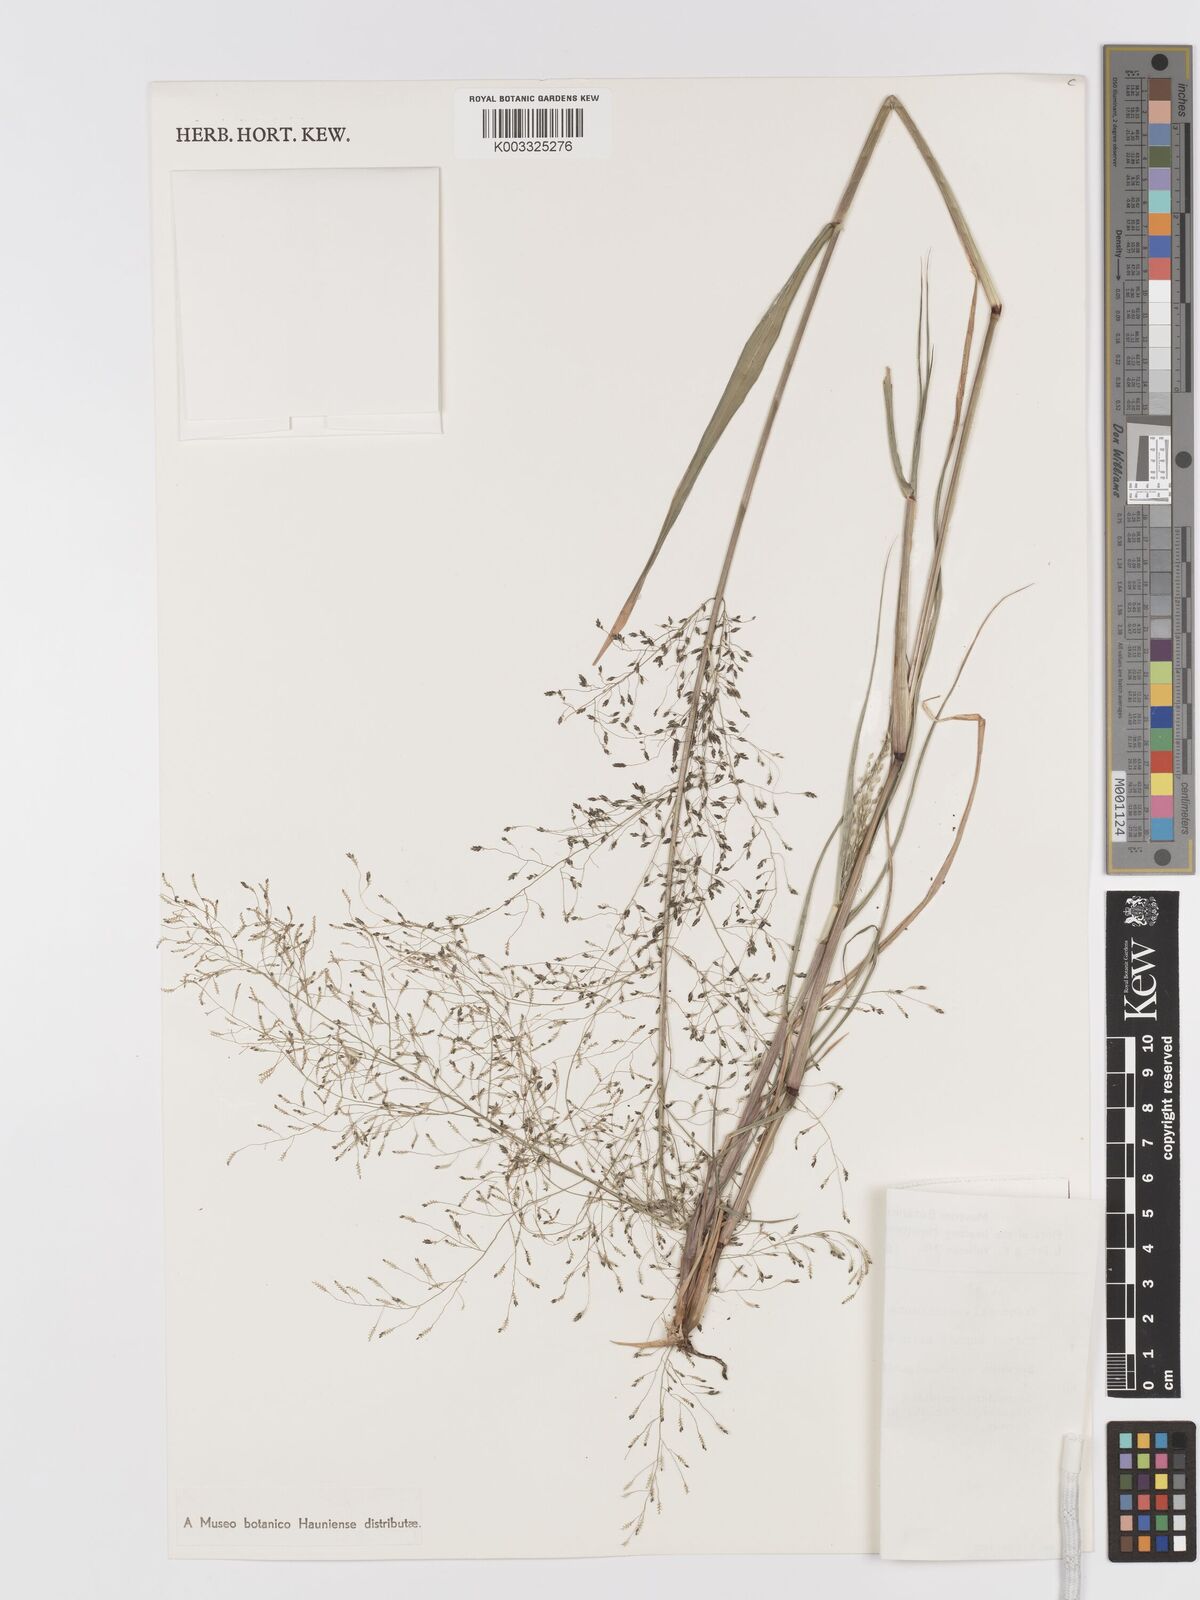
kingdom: Plantae
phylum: Tracheophyta
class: Liliopsida
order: Poales
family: Poaceae
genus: Eragrostis
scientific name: Eragrostis macilenta
